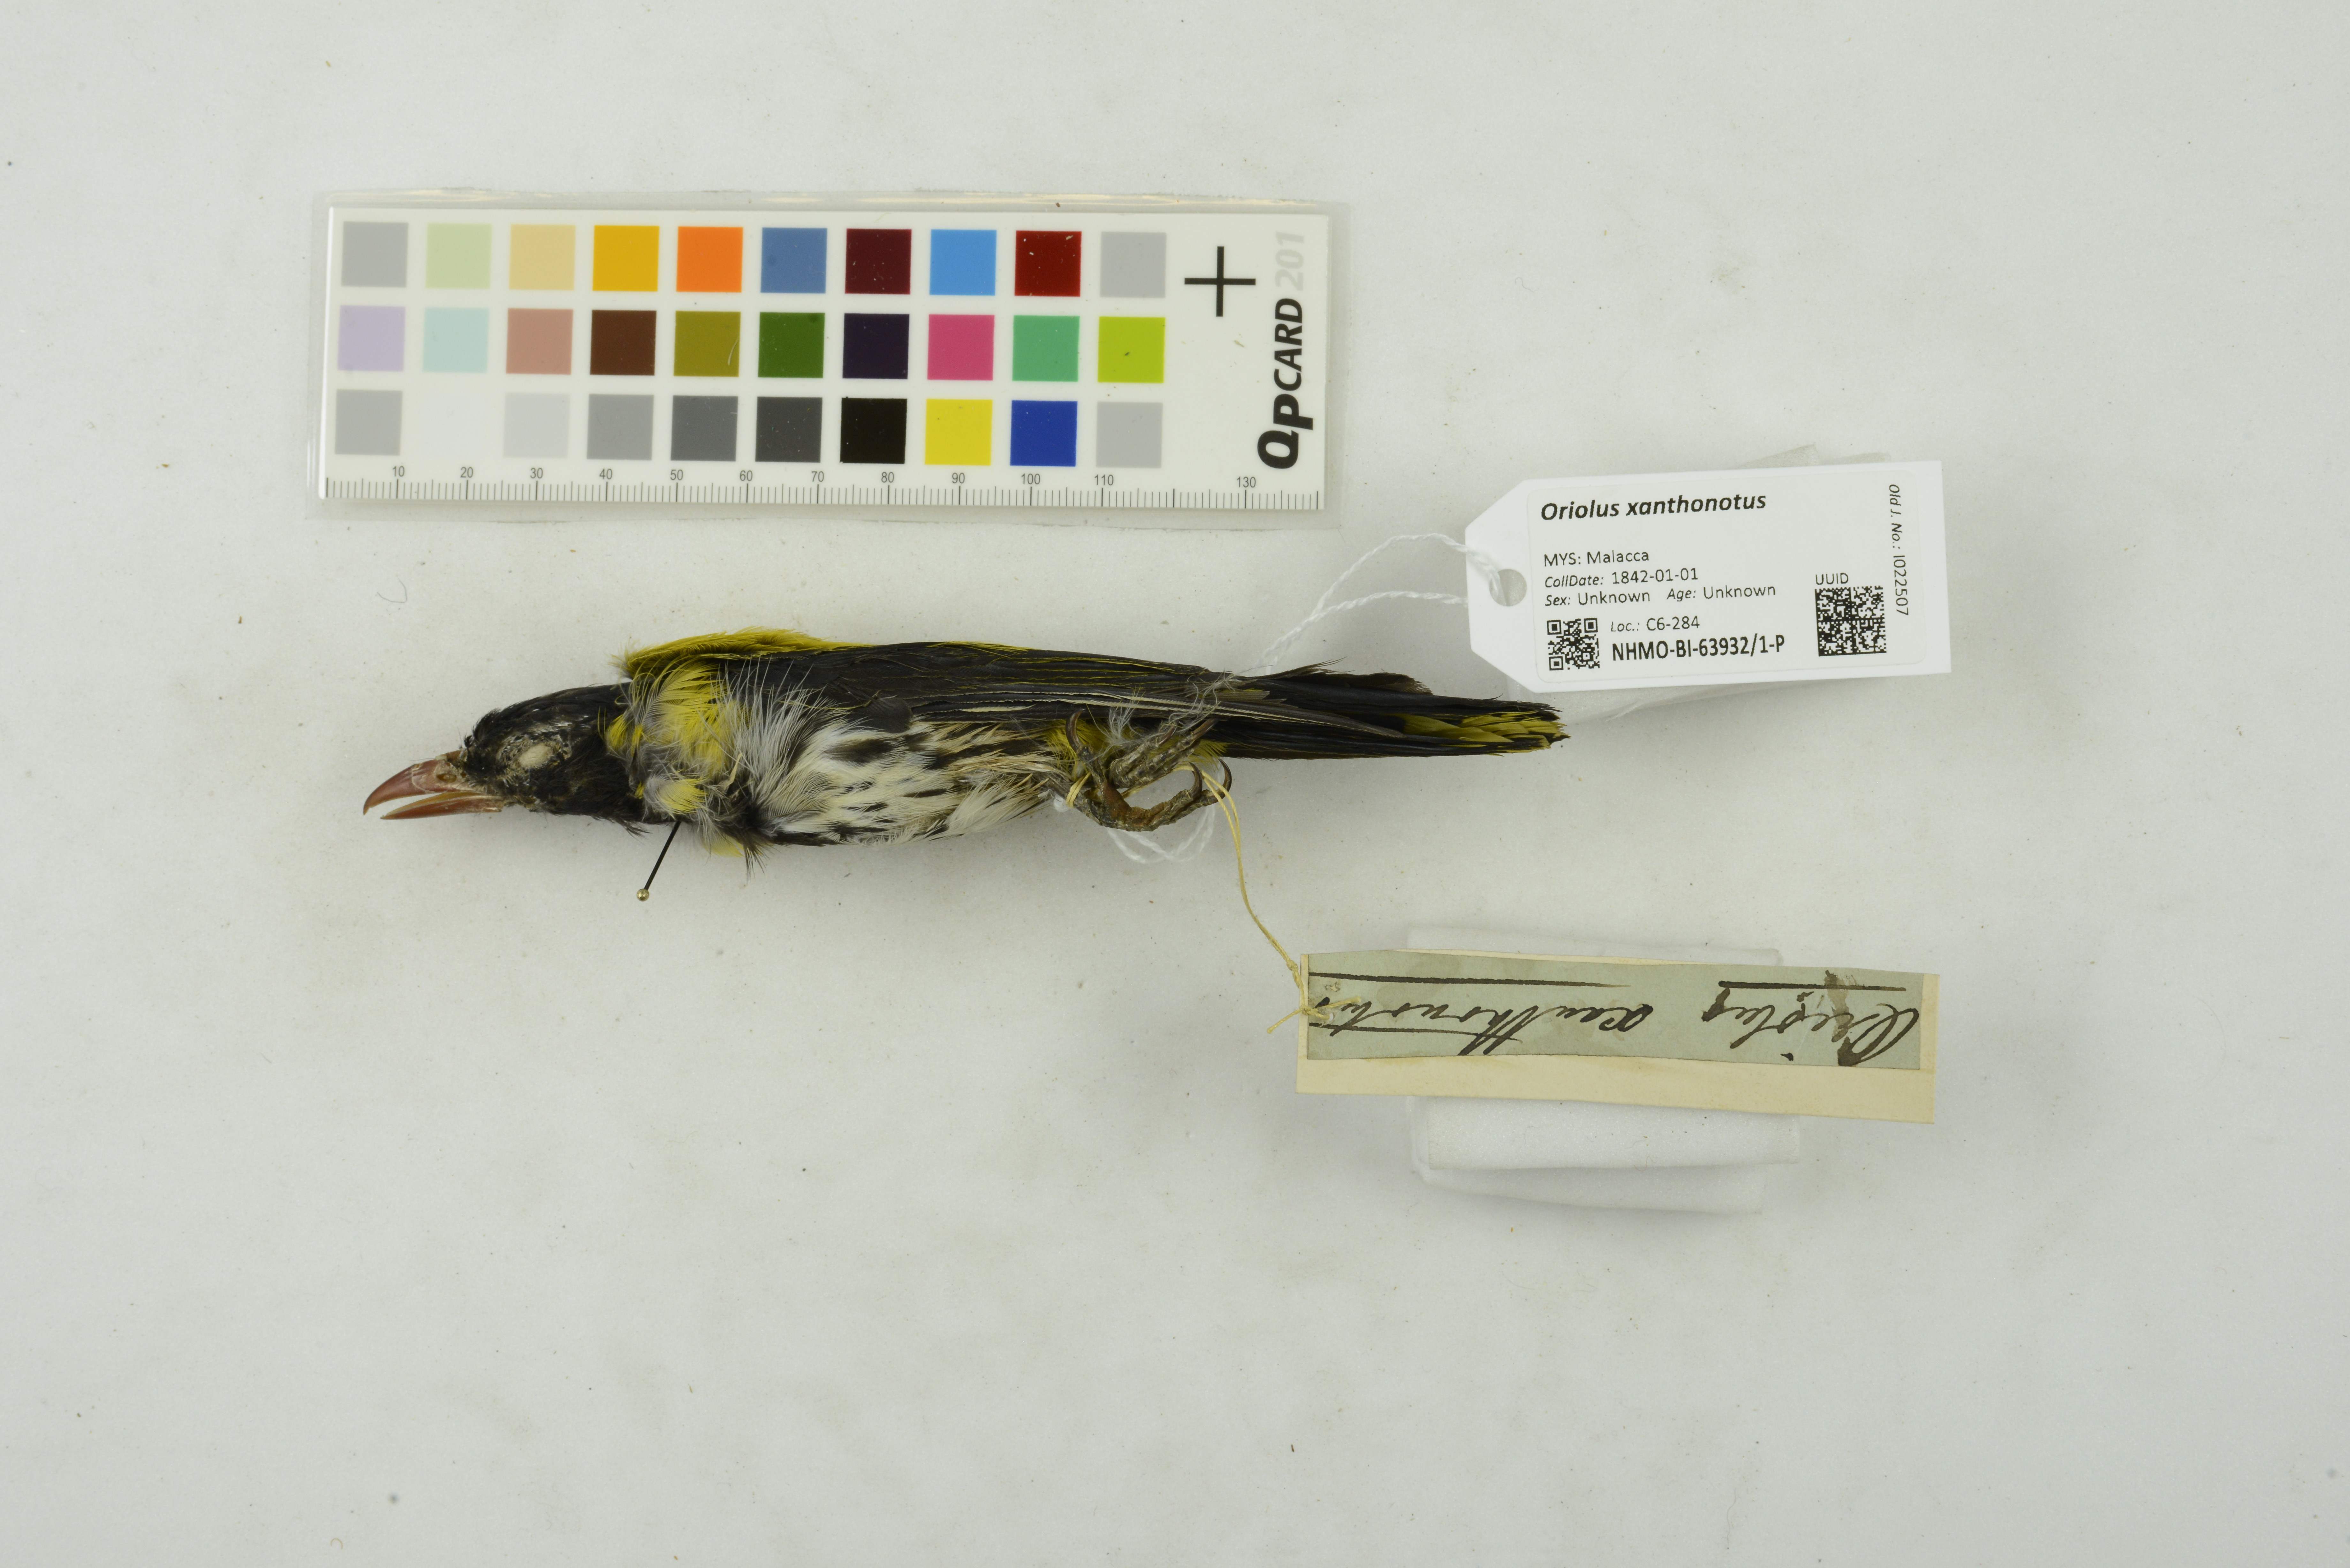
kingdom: Animalia
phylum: Chordata
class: Aves
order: Passeriformes
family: Oriolidae
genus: Oriolus
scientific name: Oriolus xanthonotus
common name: Dark-throated oriole
